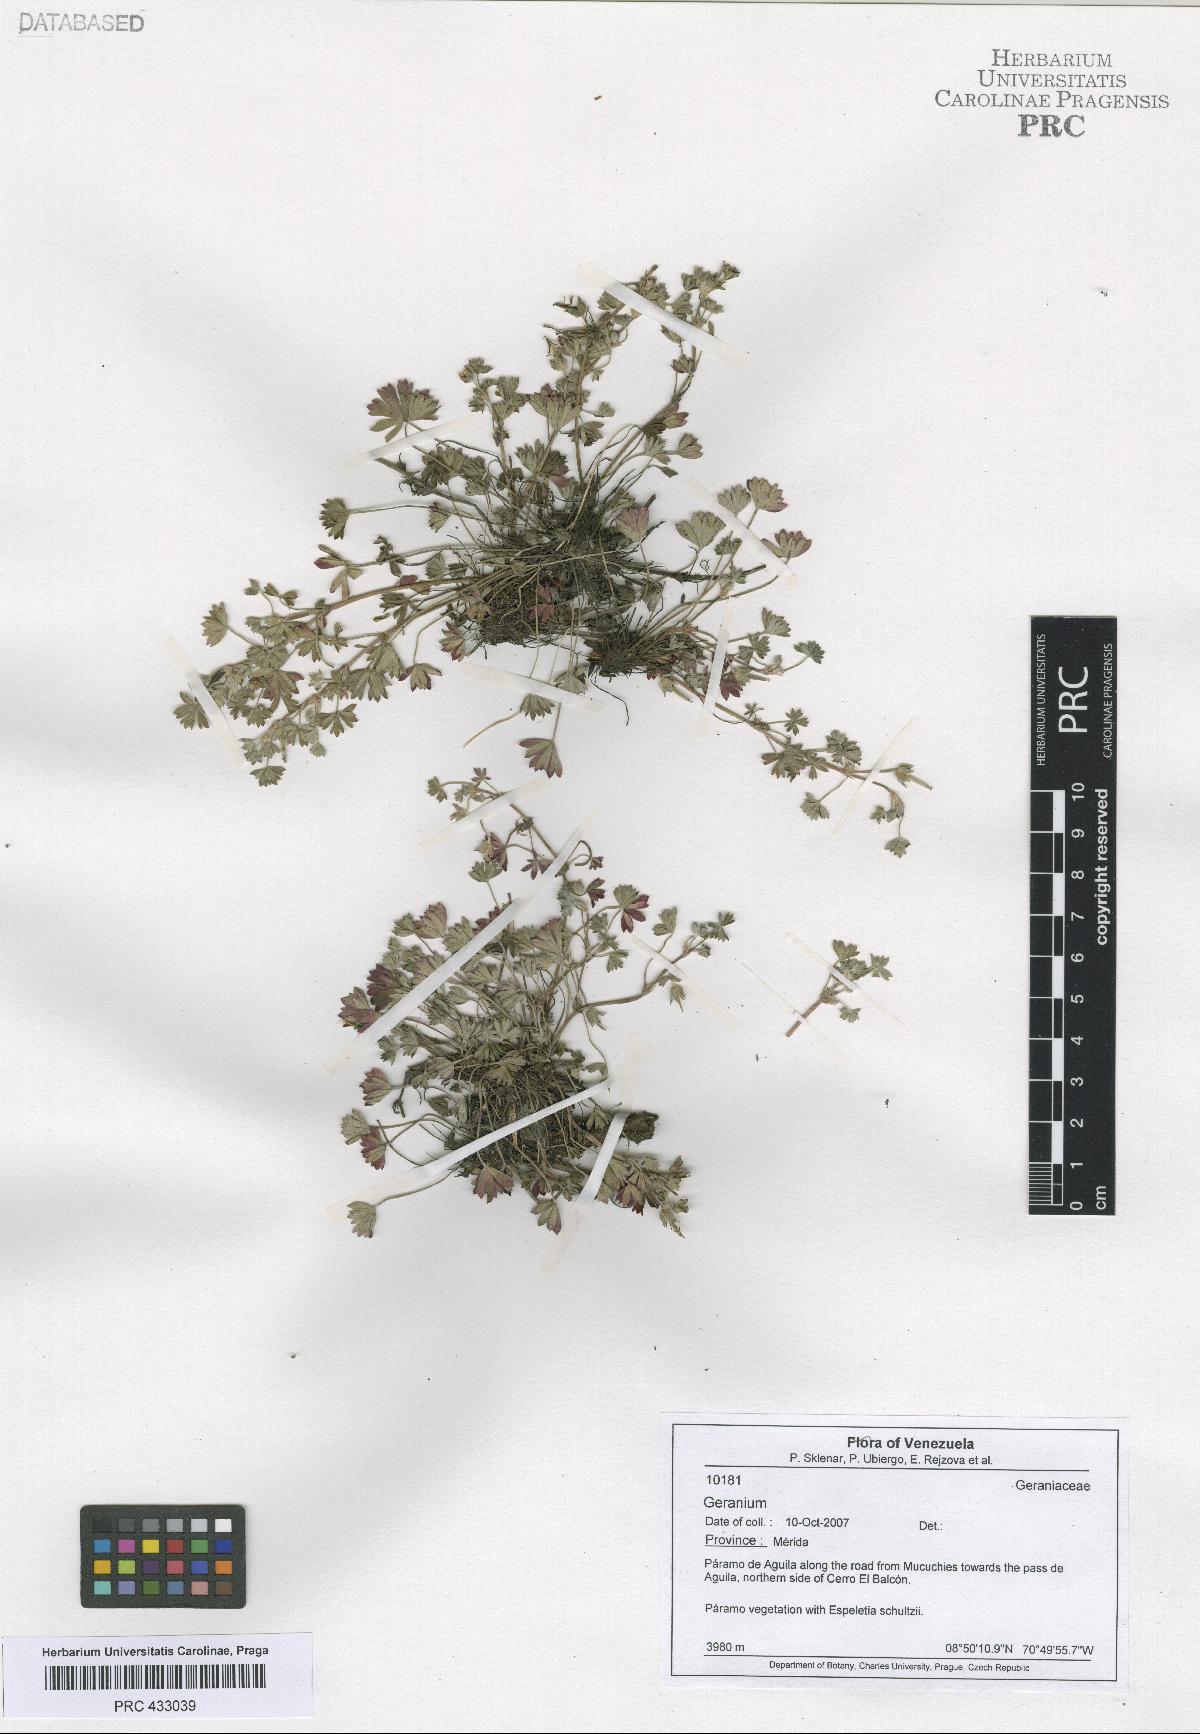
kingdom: Plantae
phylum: Tracheophyta
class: Magnoliopsida
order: Geraniales
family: Geraniaceae
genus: Geranium
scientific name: Geranium diffusum
